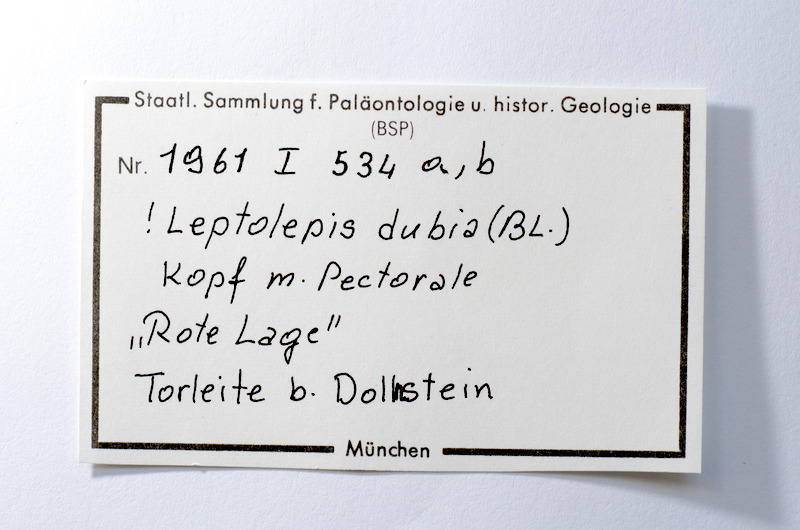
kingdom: Animalia
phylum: Chordata
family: Ascalaboidae
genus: Tharsis
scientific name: Tharsis dubius
